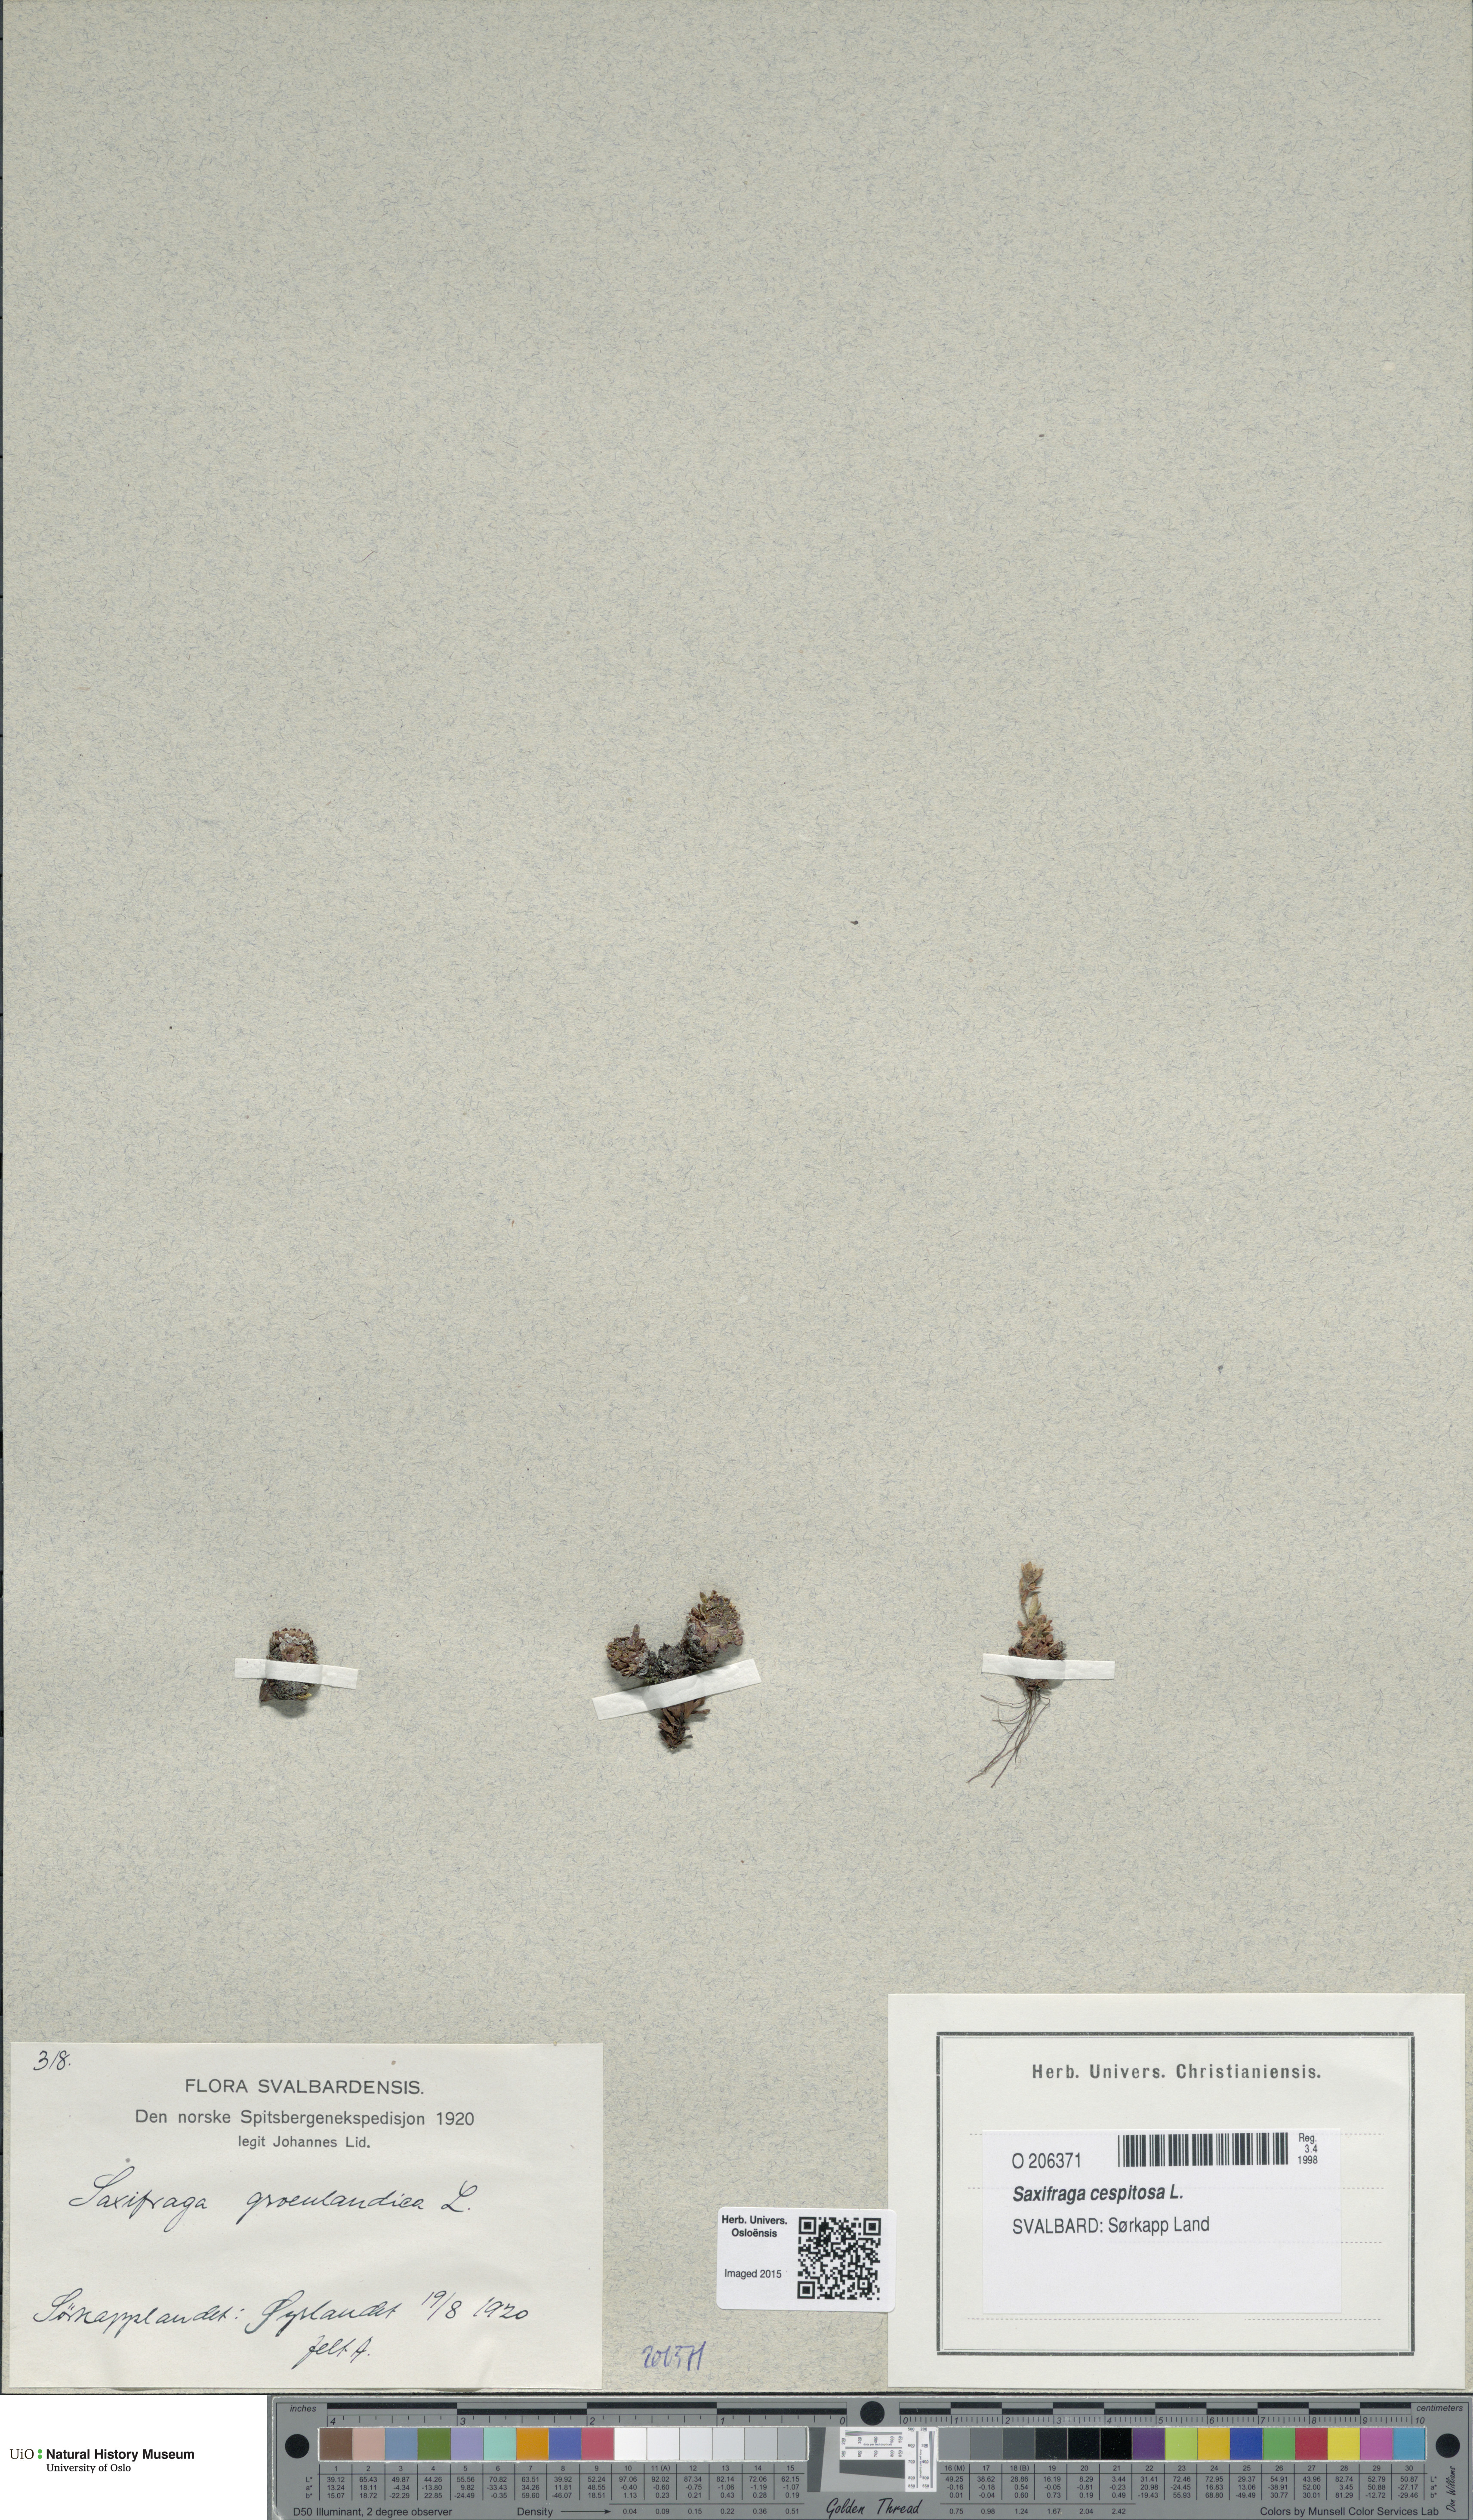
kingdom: Plantae
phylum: Tracheophyta
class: Magnoliopsida
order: Saxifragales
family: Saxifragaceae
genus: Saxifraga
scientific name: Saxifraga cespitosa
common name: Tufted saxifrage
